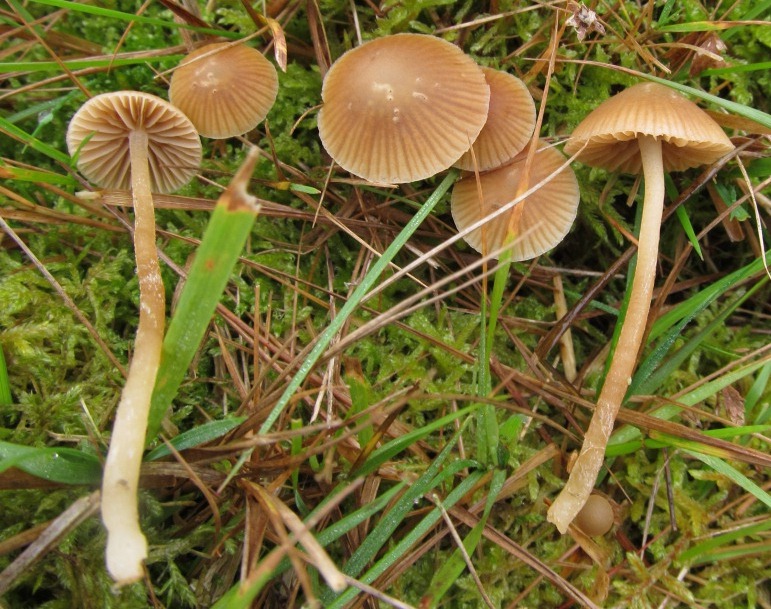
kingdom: Fungi
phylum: Basidiomycota
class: Agaricomycetes
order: Agaricales
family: Hymenogastraceae
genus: Galerina
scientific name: Galerina mniophila
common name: olivengul hjelmhat
